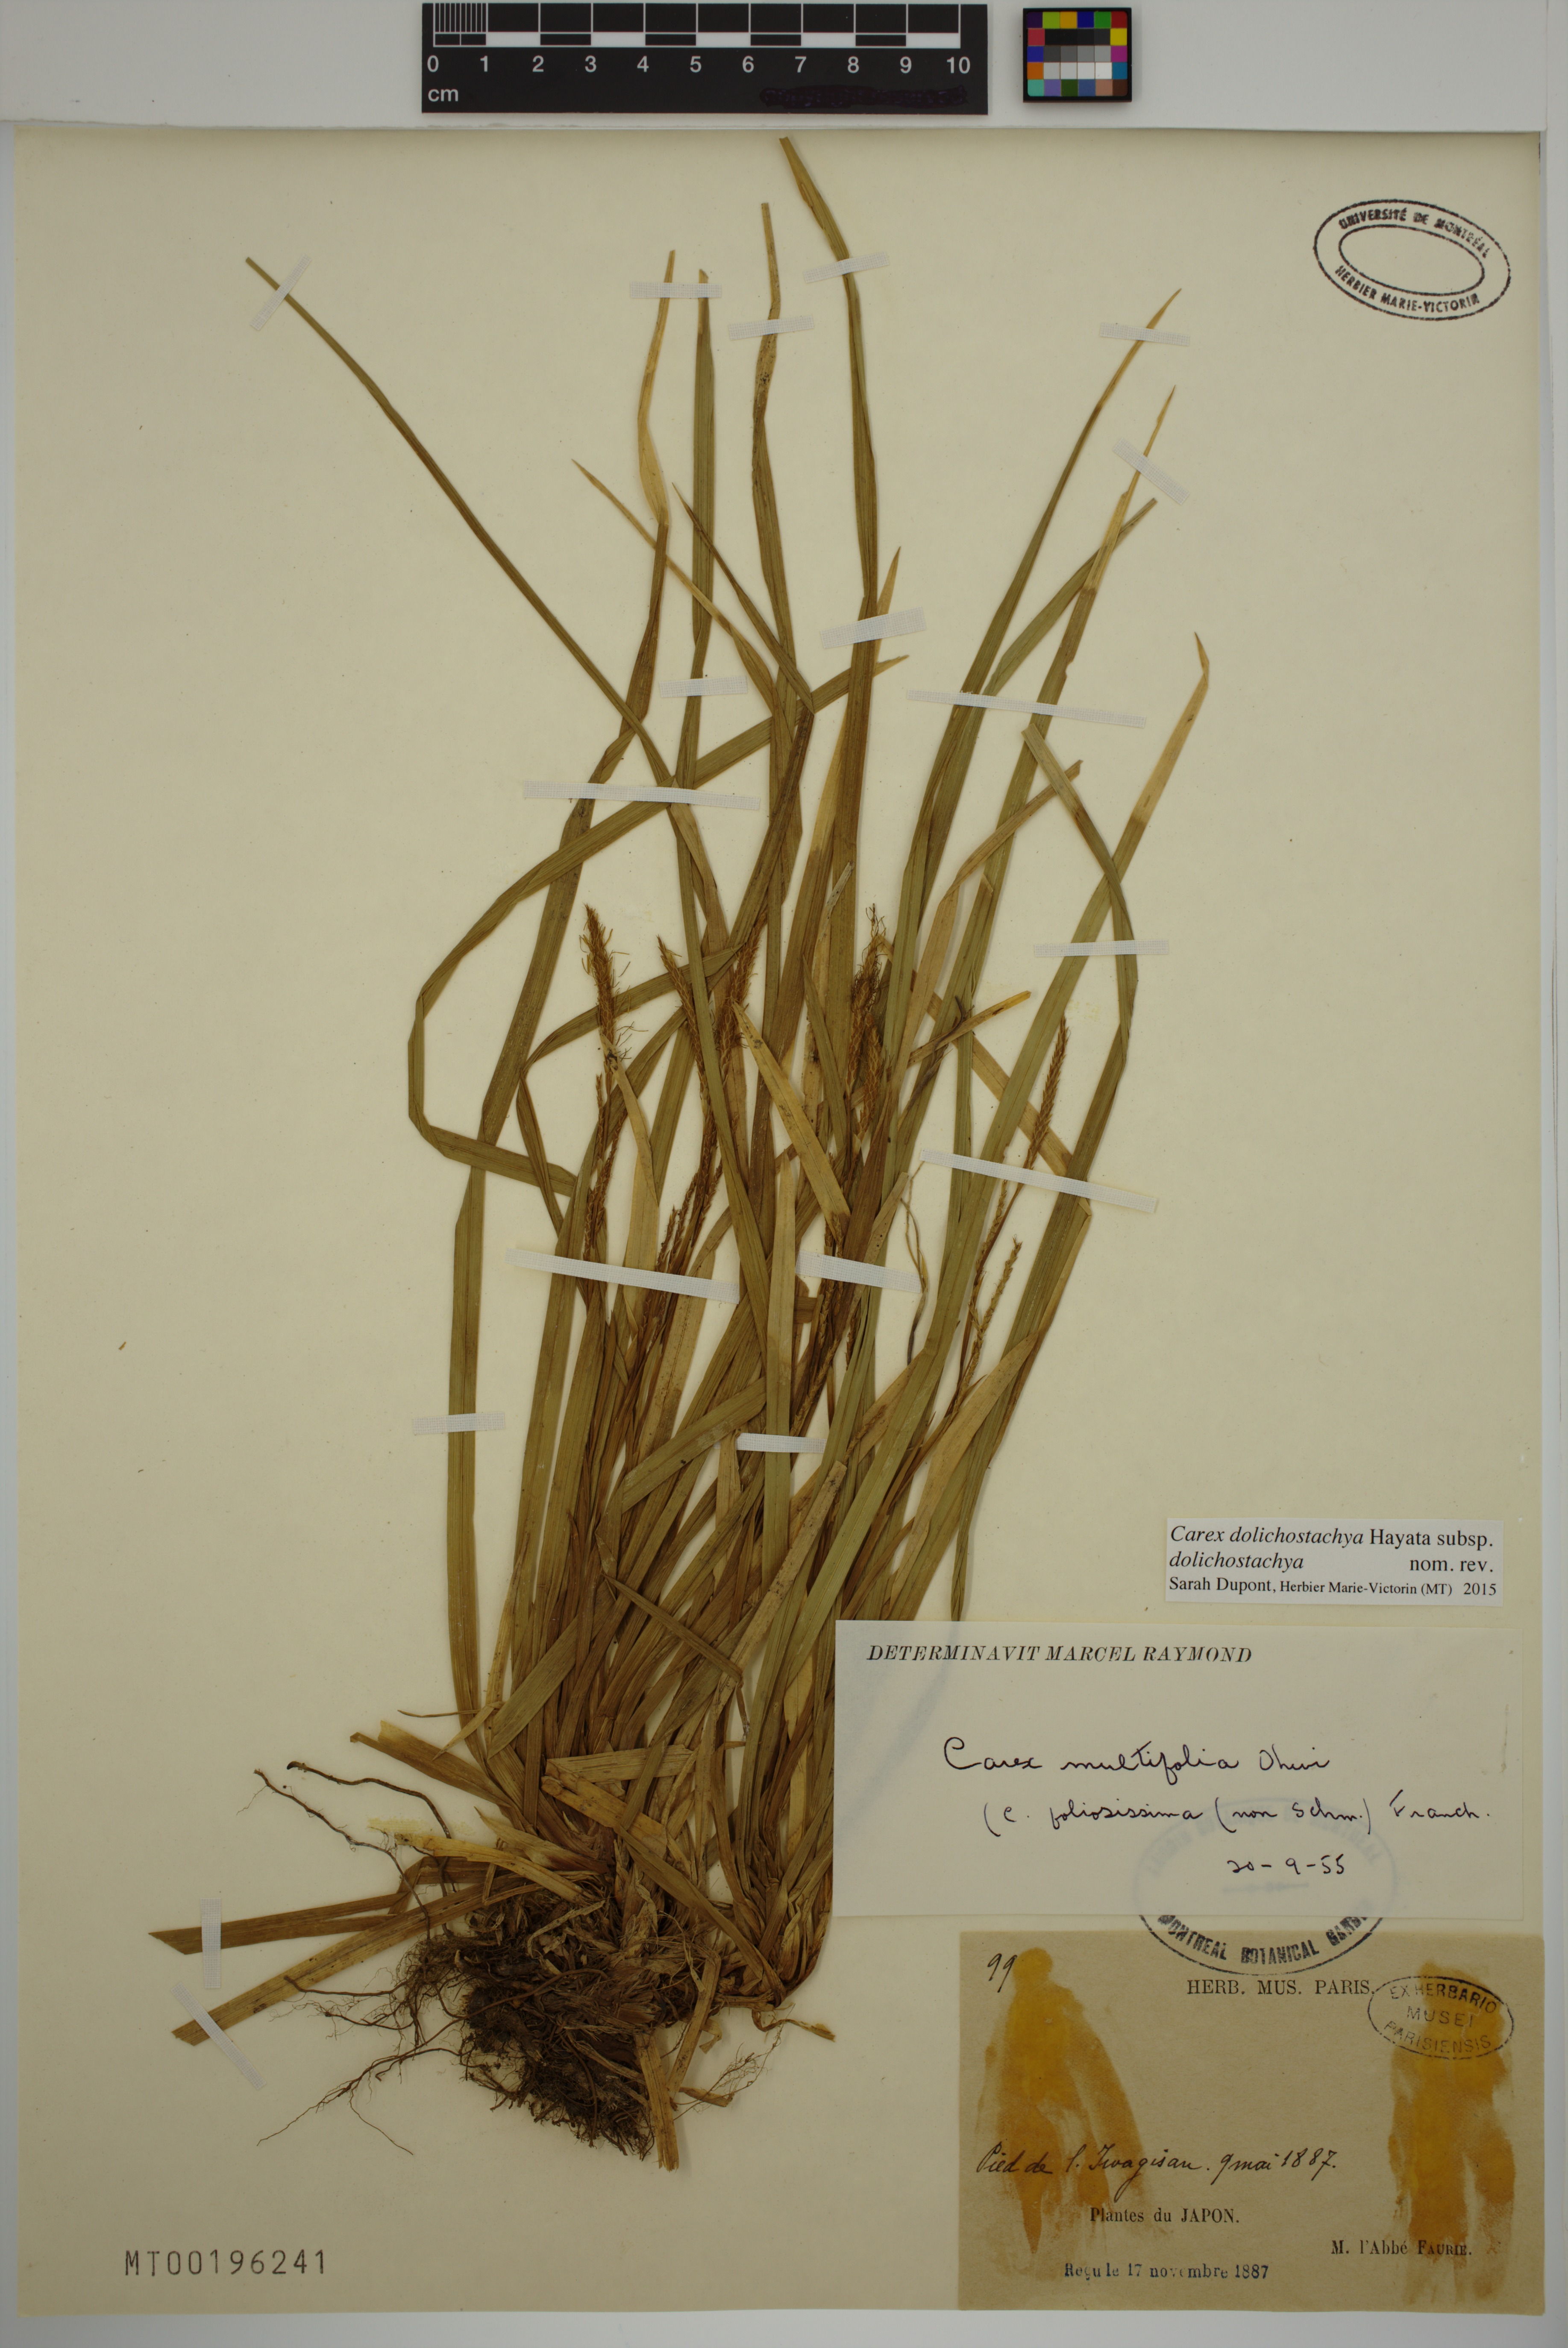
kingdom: Plantae
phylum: Tracheophyta
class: Liliopsida
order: Poales
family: Cyperaceae
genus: Carex
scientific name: Carex dolichostachya
